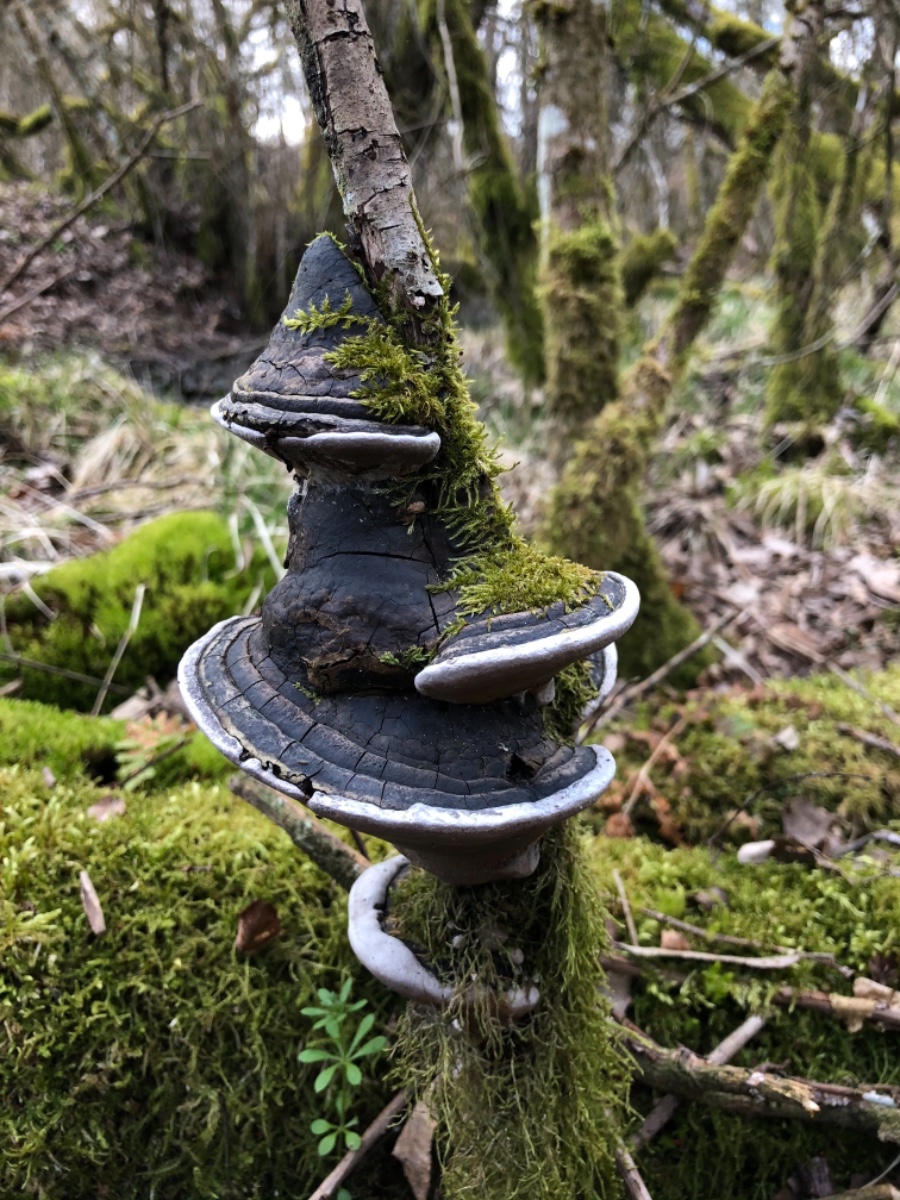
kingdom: Fungi
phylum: Basidiomycota
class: Agaricomycetes
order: Hymenochaetales
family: Hymenochaetaceae
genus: Phellinus
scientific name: Phellinus igniarius
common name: almindelig ildporesvamp
